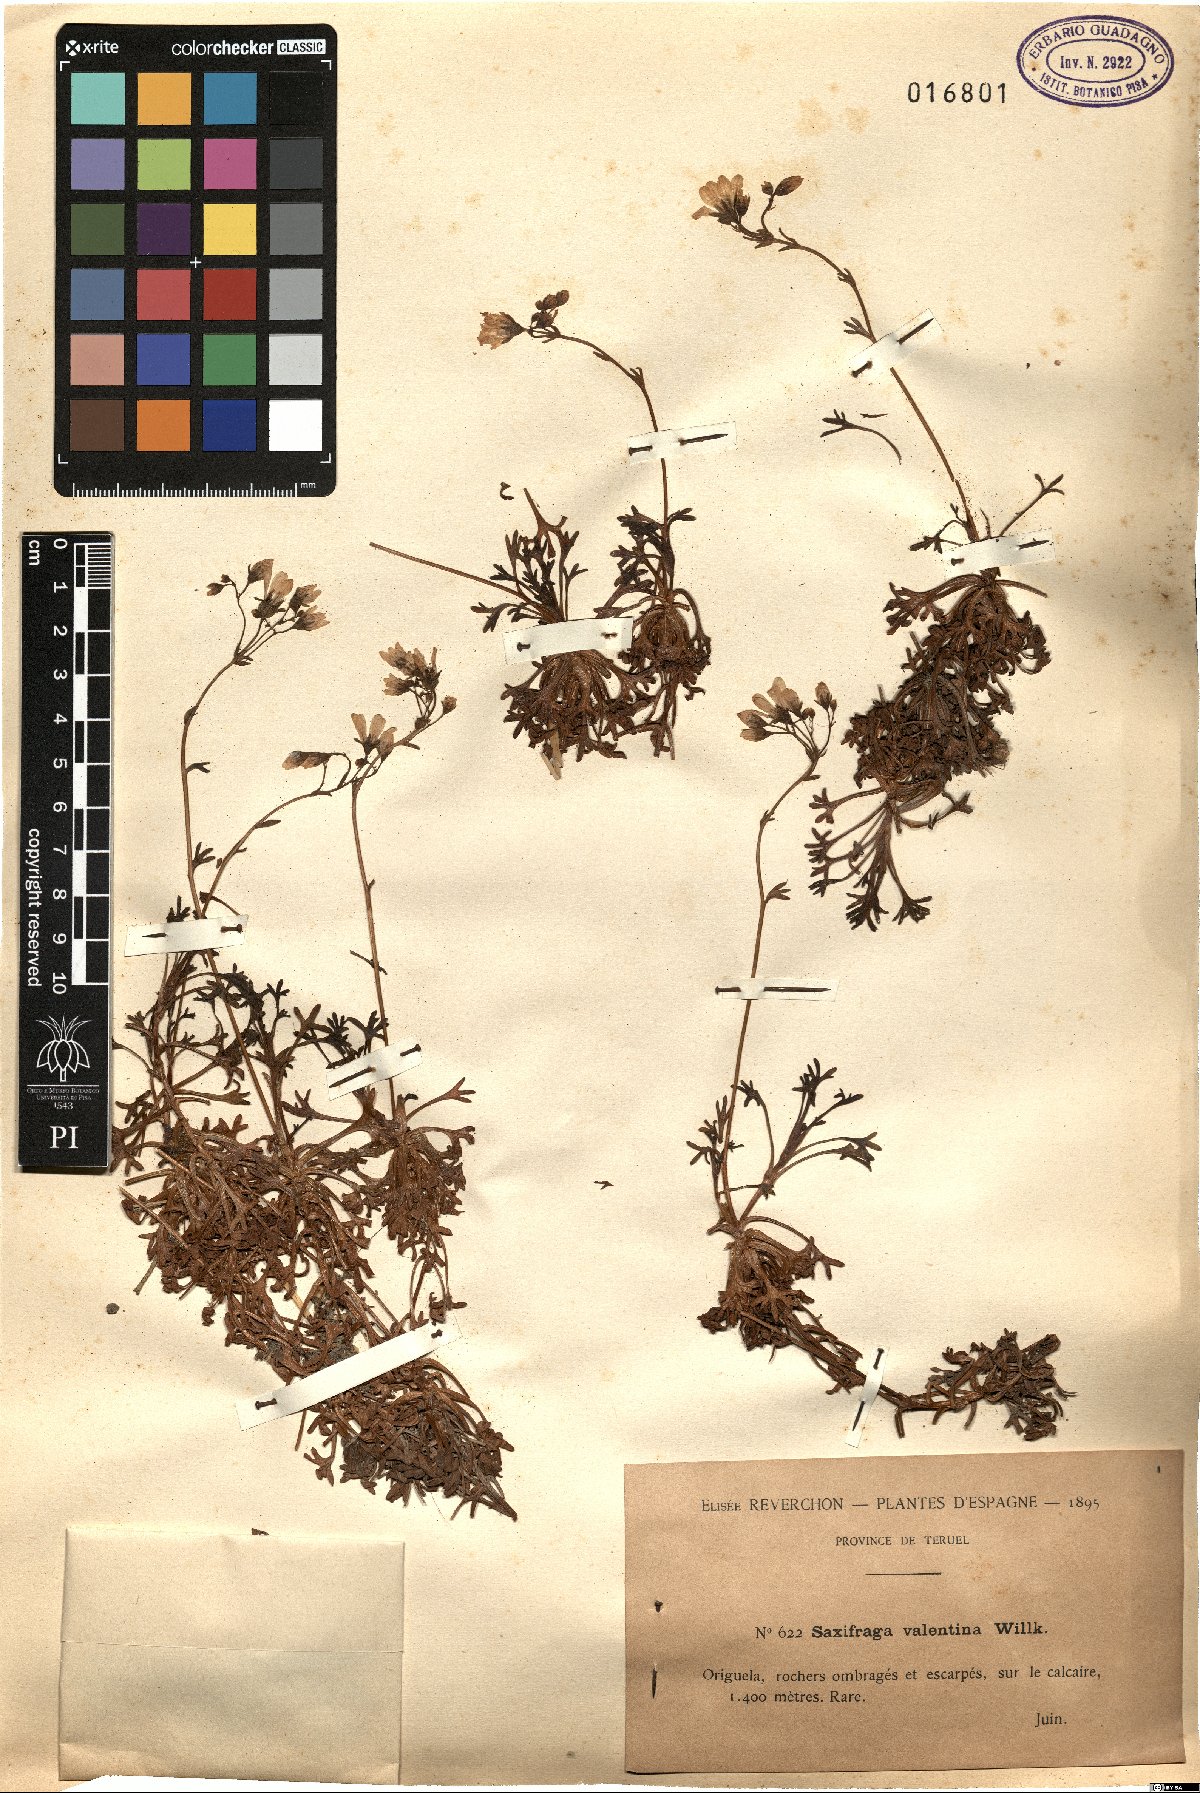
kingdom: Plantae
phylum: Tracheophyta
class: Magnoliopsida
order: Saxifragales
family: Saxifragaceae
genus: Saxifraga
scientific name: Saxifraga fragilis
